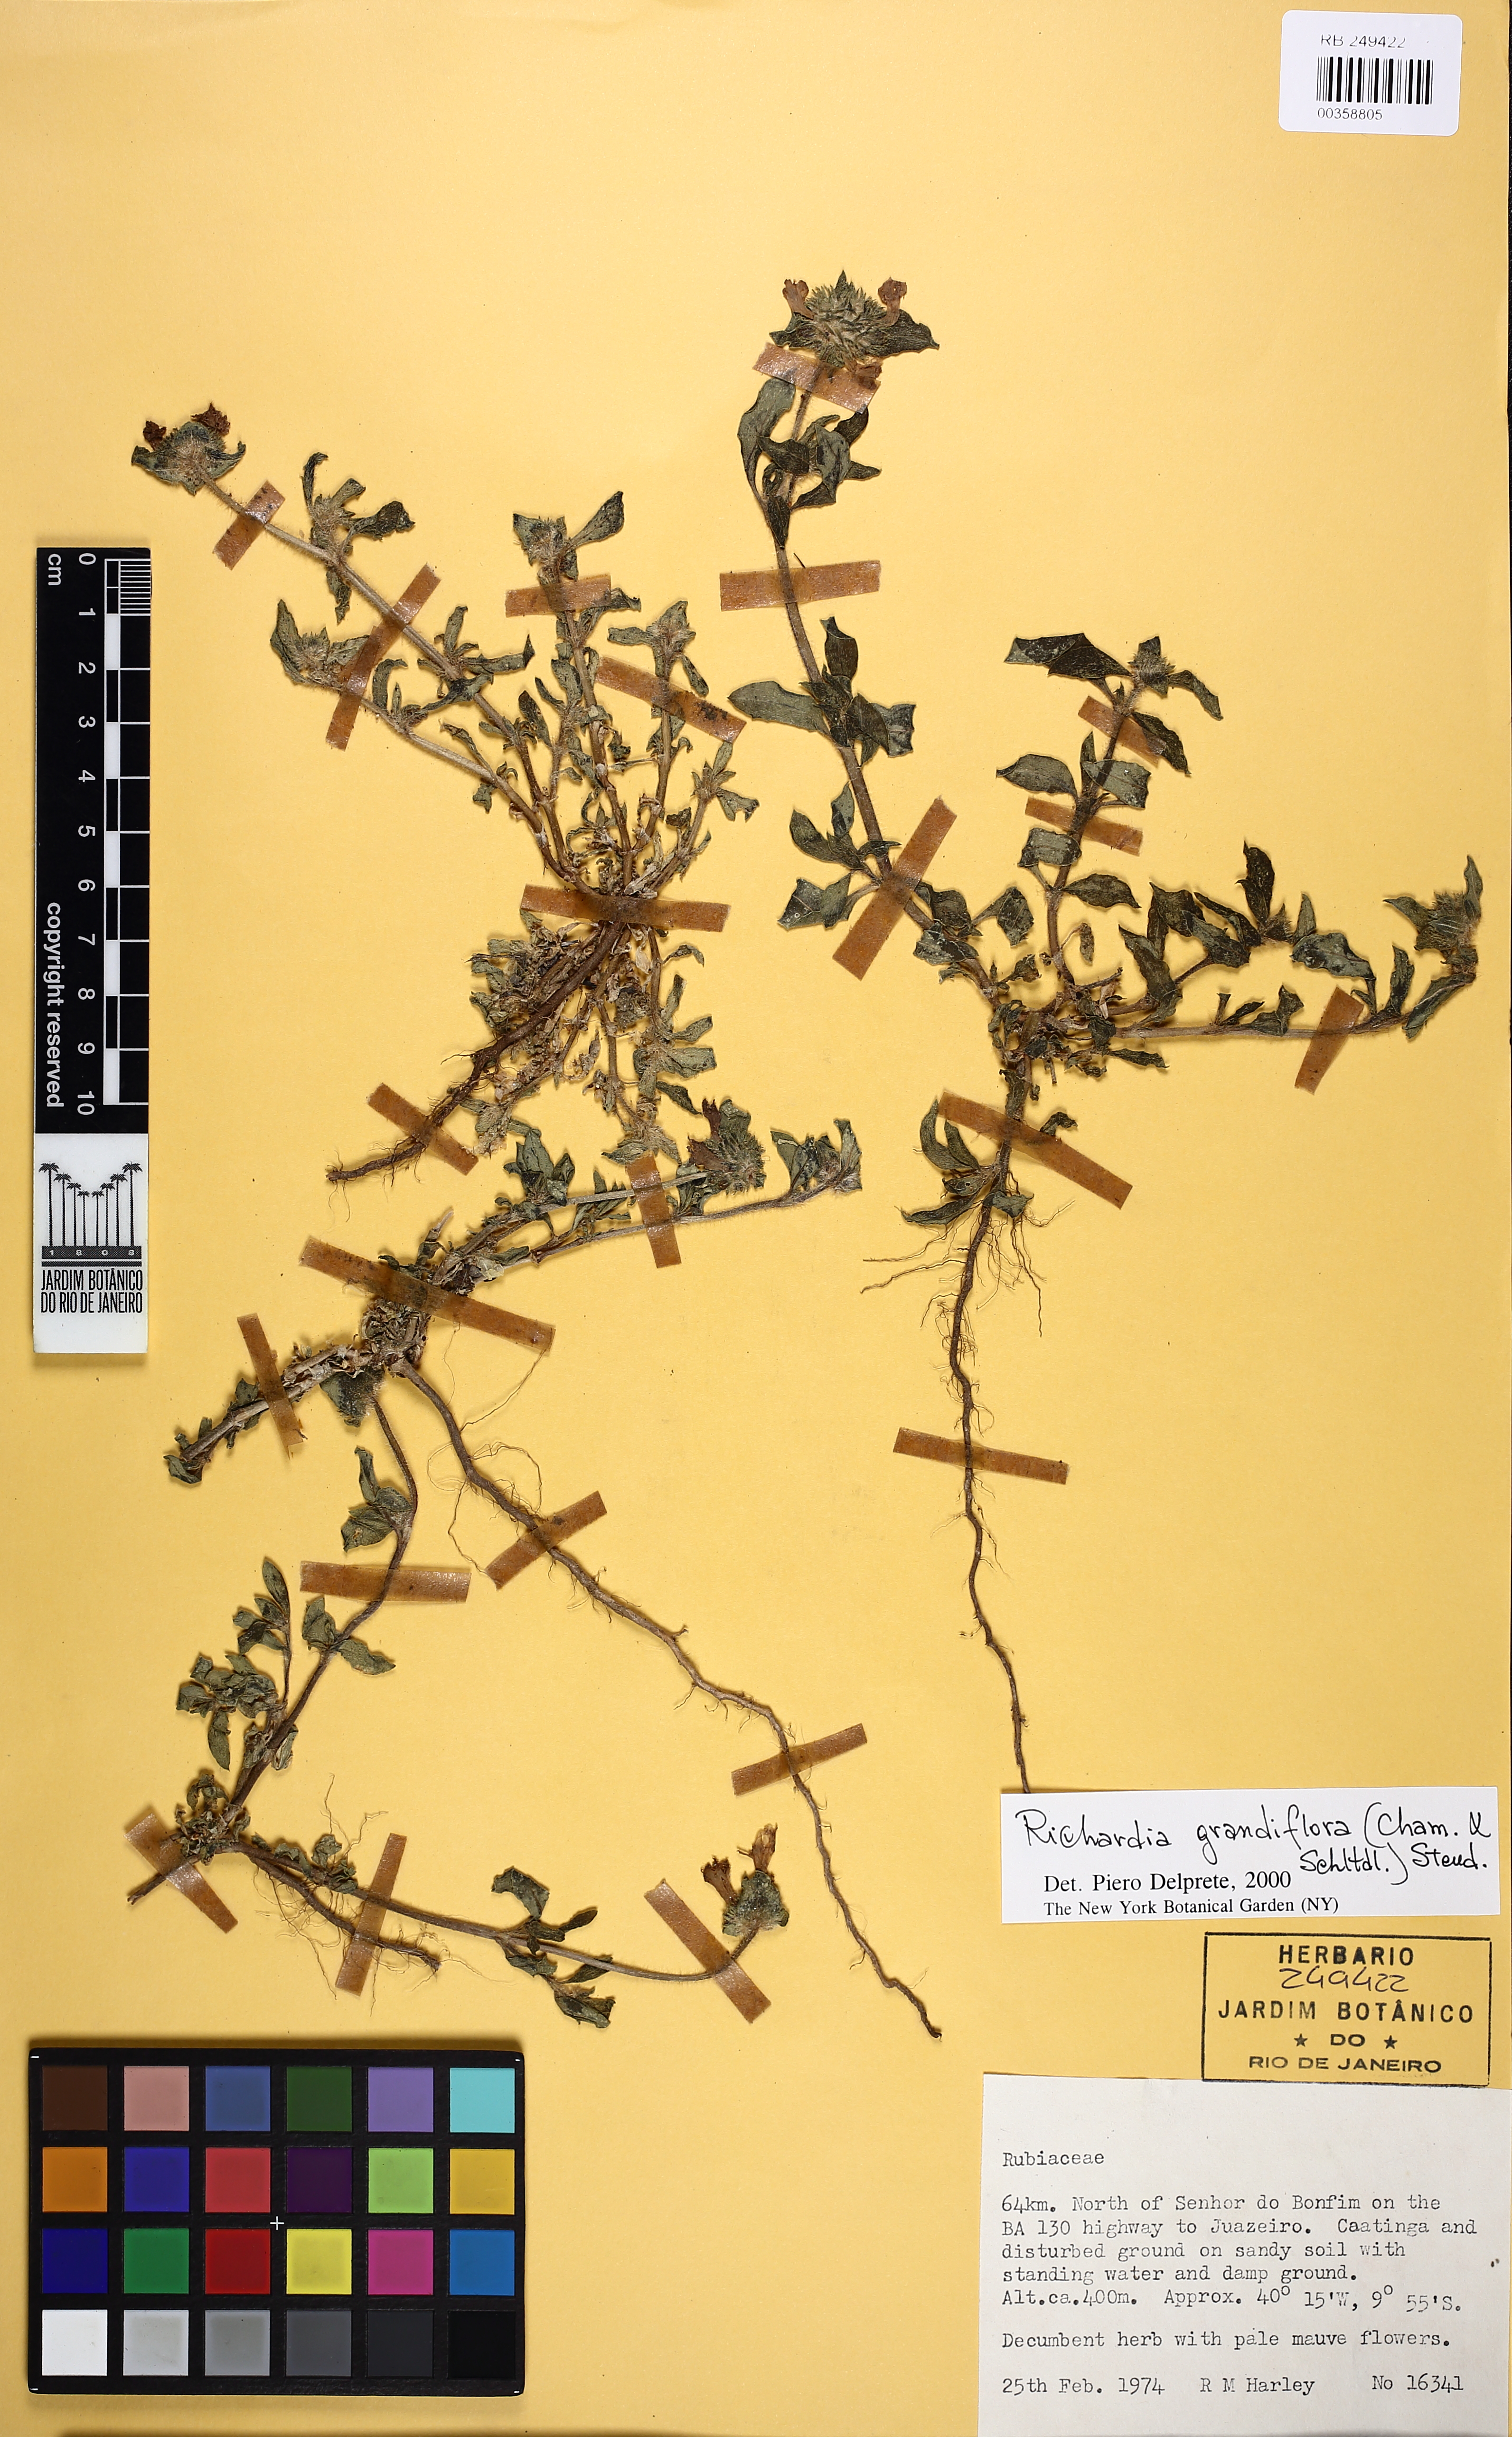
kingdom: Plantae
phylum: Tracheophyta
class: Magnoliopsida
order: Gentianales
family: Rubiaceae
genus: Richardia
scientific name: Richardia grandiflora
